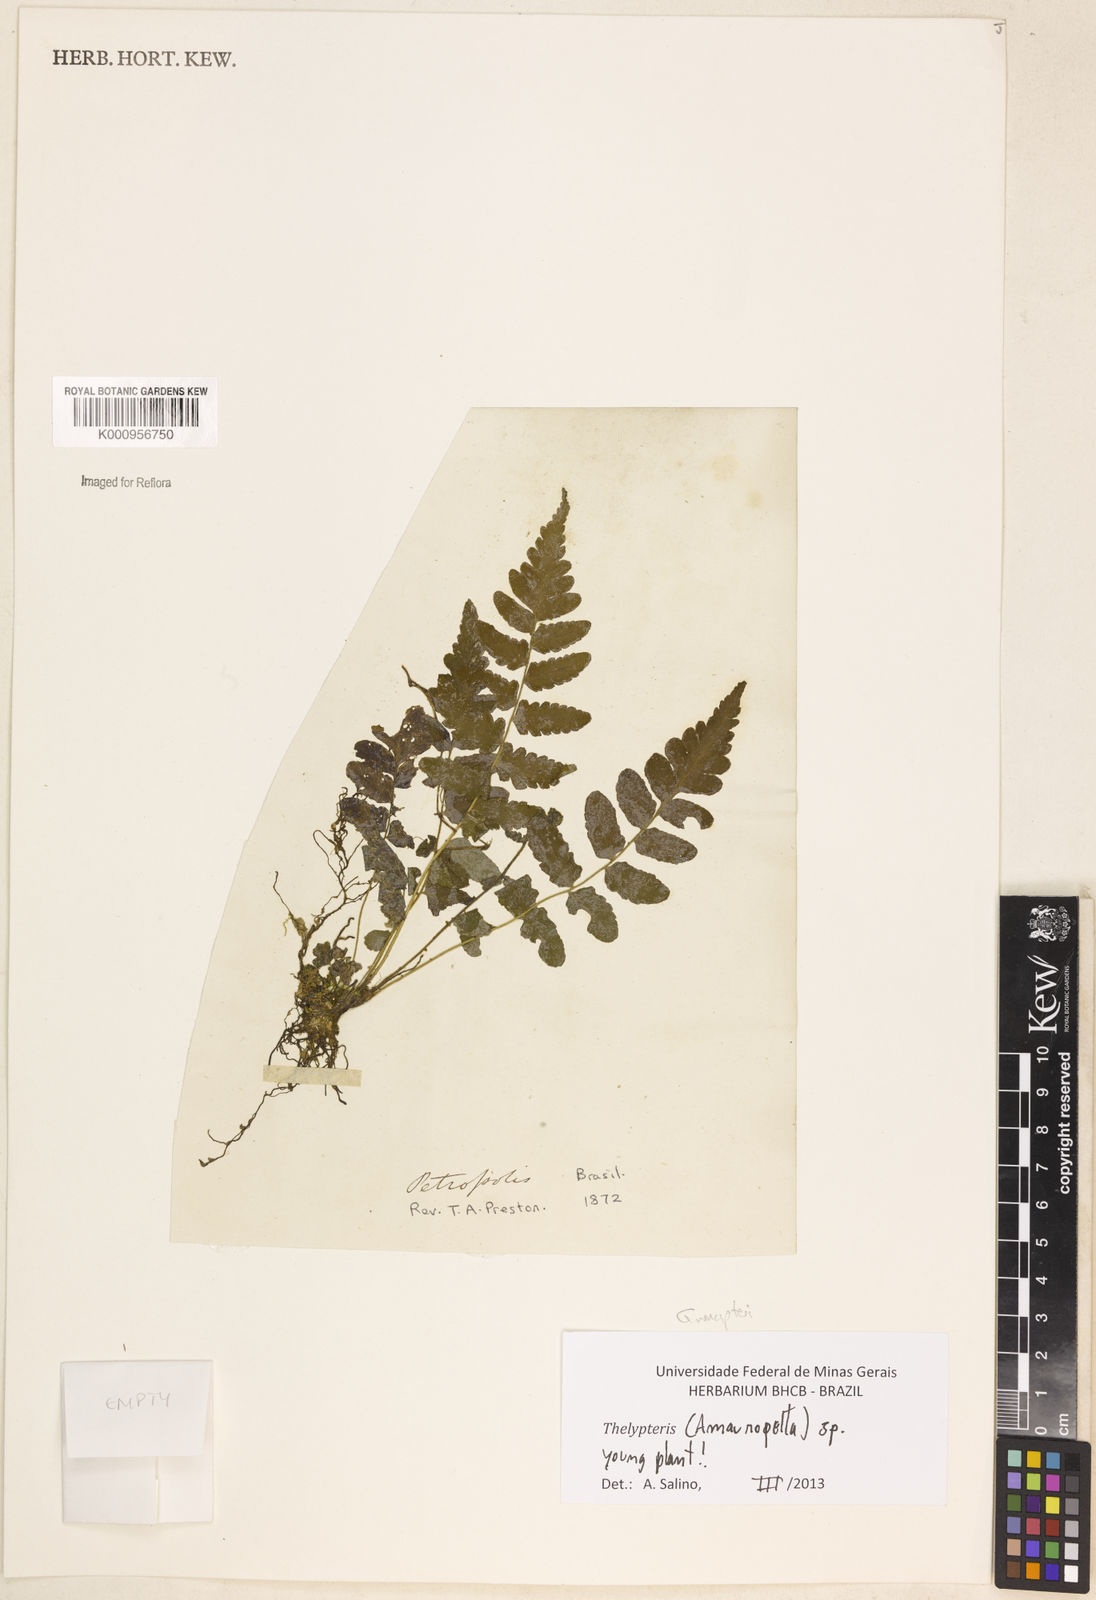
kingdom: Plantae
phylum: Tracheophyta
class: Polypodiopsida
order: Polypodiales
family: Thelypteridaceae
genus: Amauropelta
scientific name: Amauropelta
